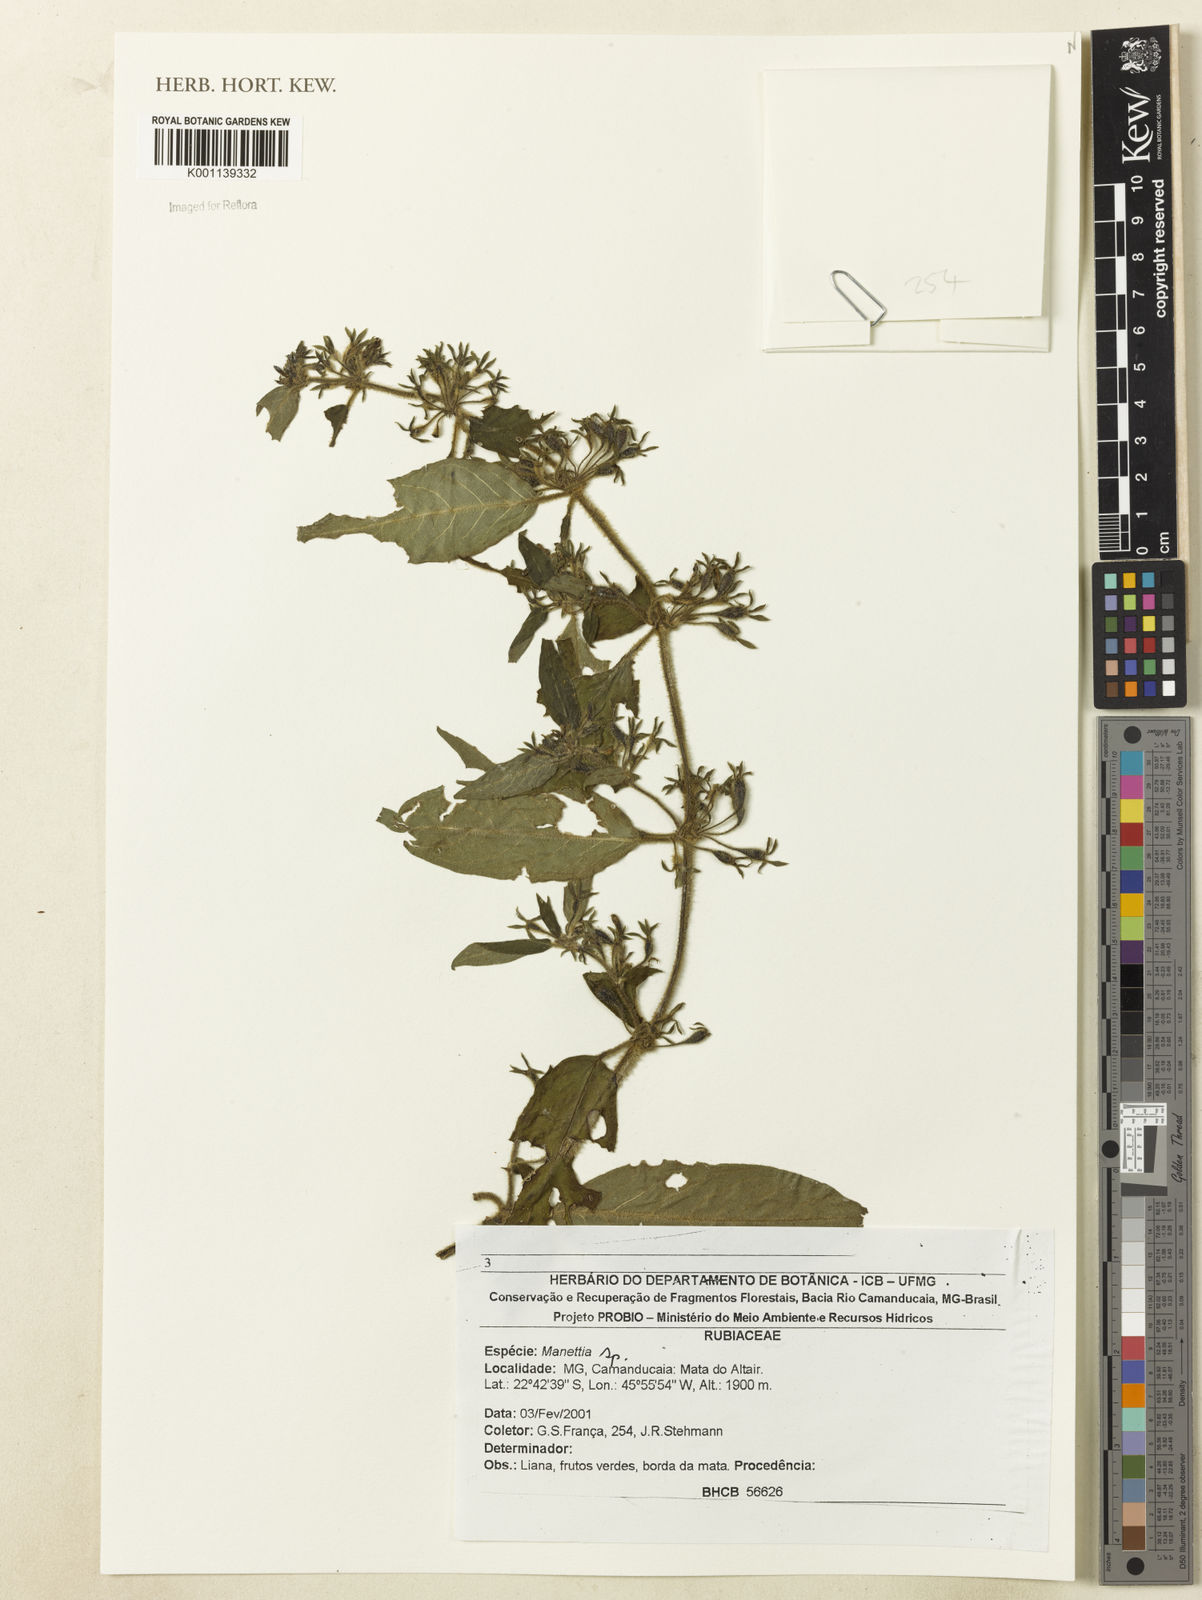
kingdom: Plantae
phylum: Tracheophyta
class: Magnoliopsida
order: Gentianales
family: Rubiaceae
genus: Manettia
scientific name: Manettia
